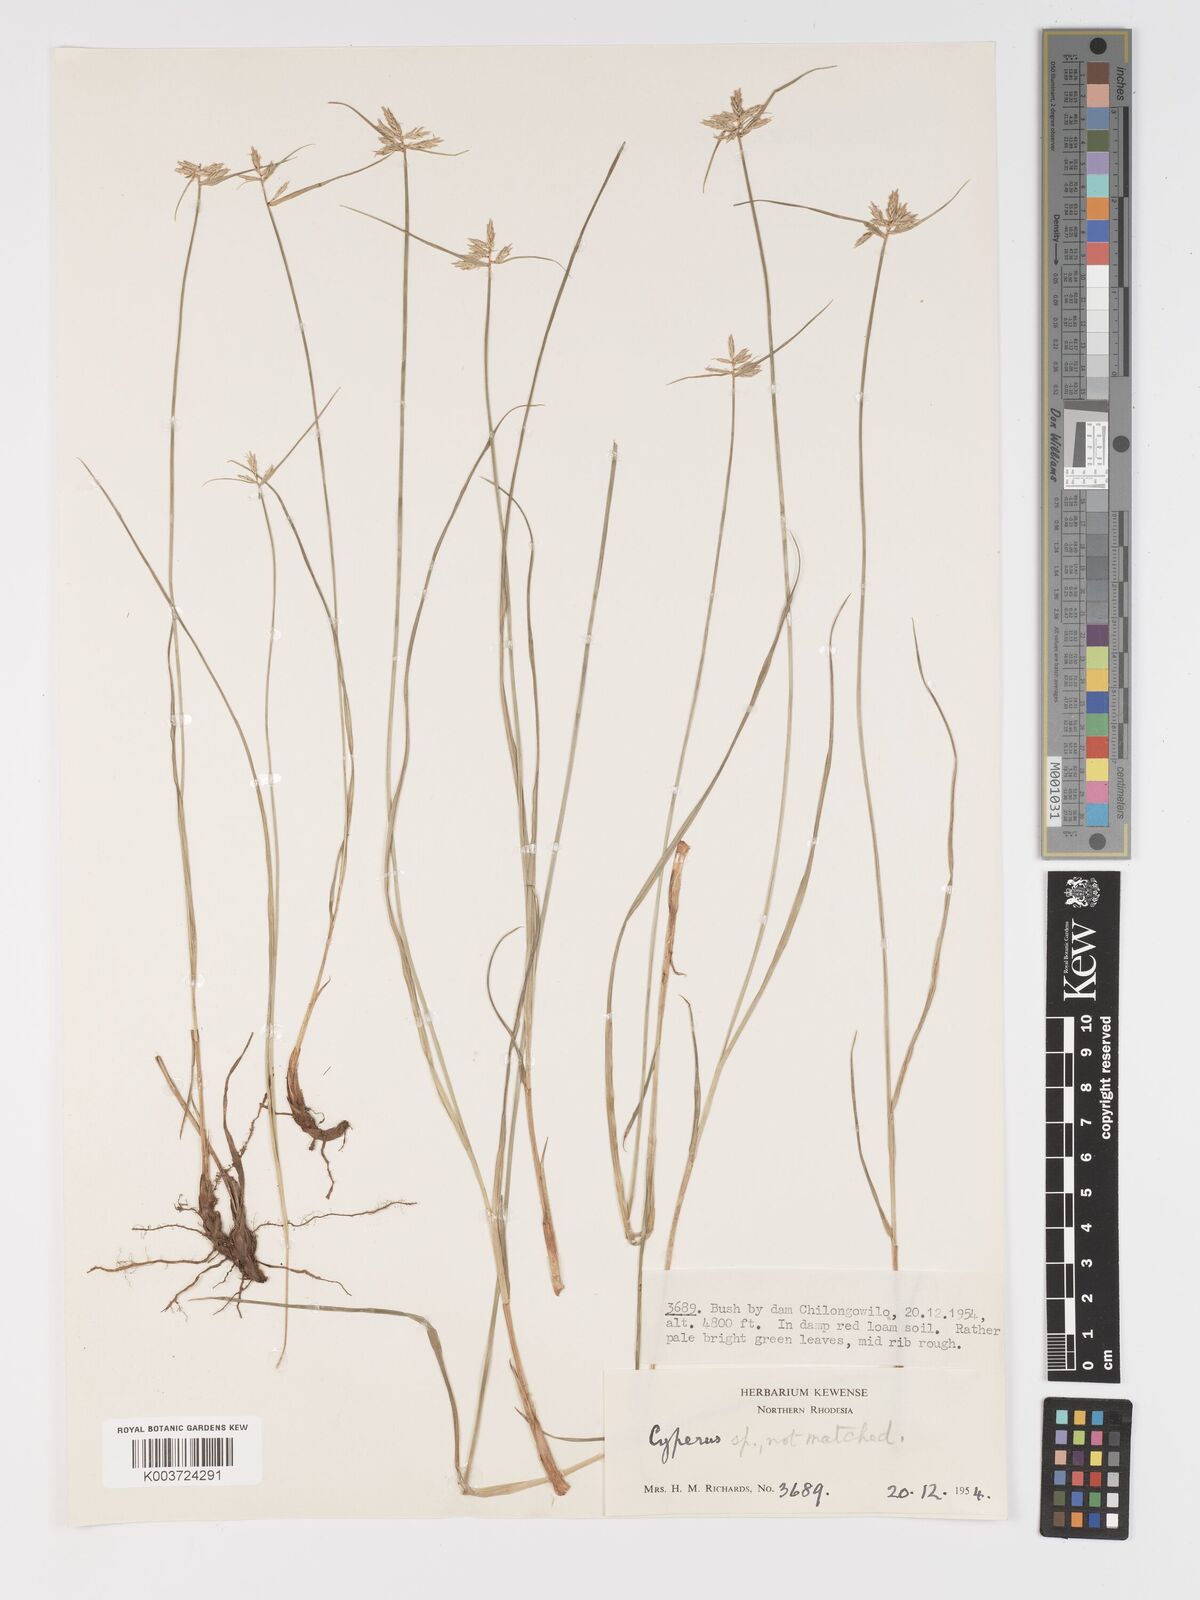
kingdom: Plantae
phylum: Tracheophyta
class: Liliopsida
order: Poales
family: Cyperaceae
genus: Cyperus
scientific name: Cyperus
